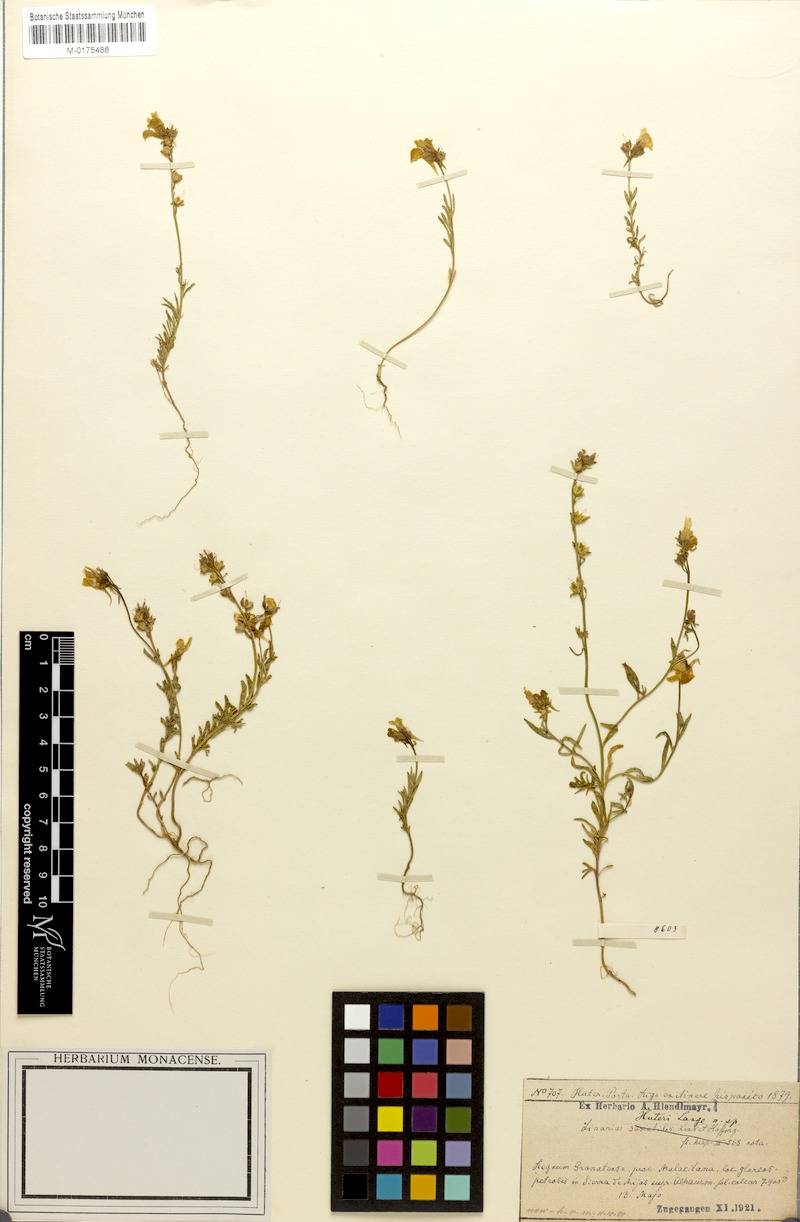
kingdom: Plantae
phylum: Tracheophyta
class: Magnoliopsida
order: Lamiales
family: Plantaginaceae
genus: Linaria
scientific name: Linaria huteri
